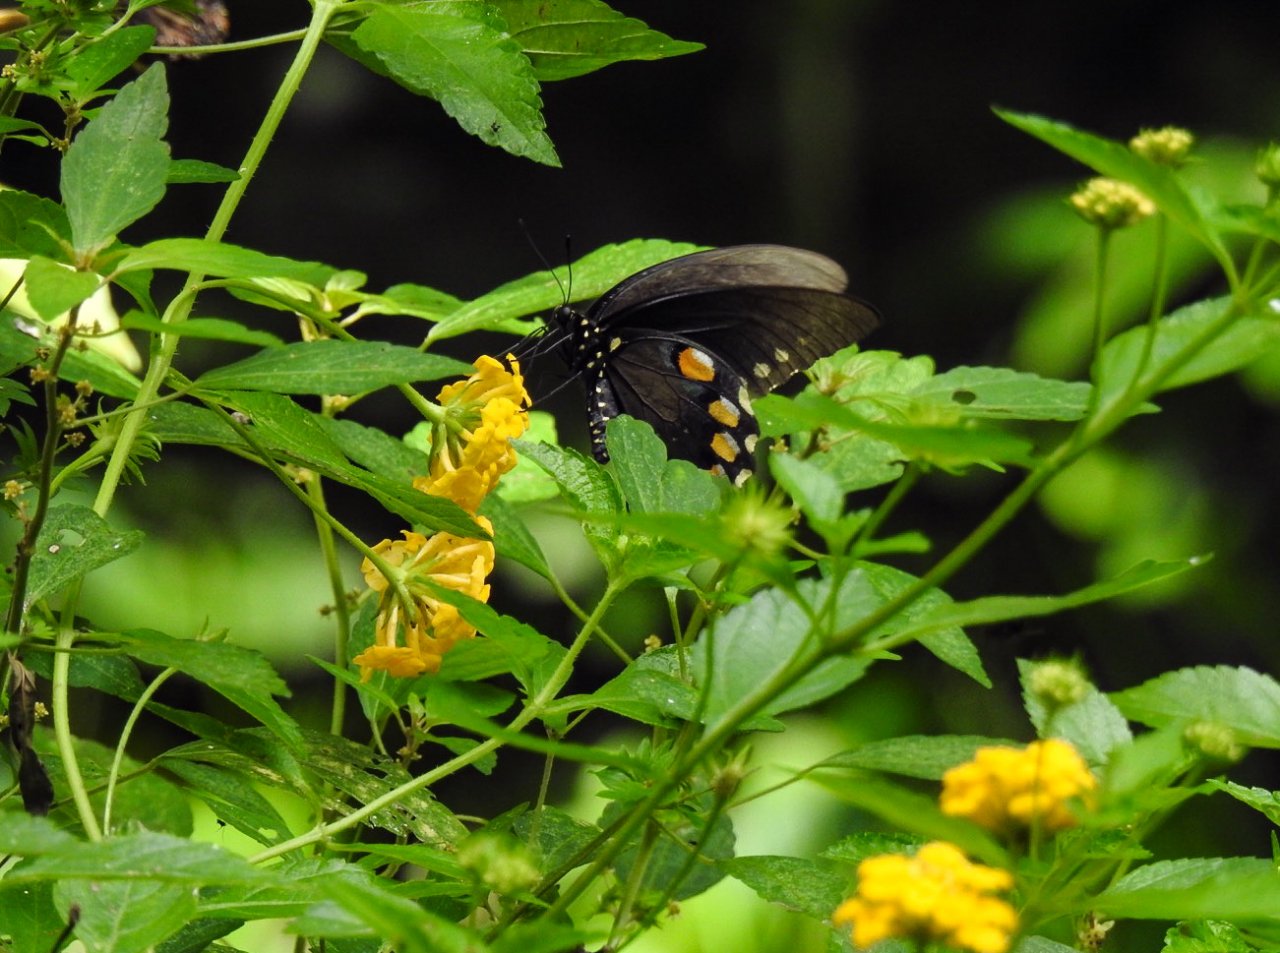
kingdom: Animalia
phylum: Arthropoda
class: Insecta
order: Lepidoptera
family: Papilionidae
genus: Battus
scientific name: Battus philenor
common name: Pipevine Swallowtail
